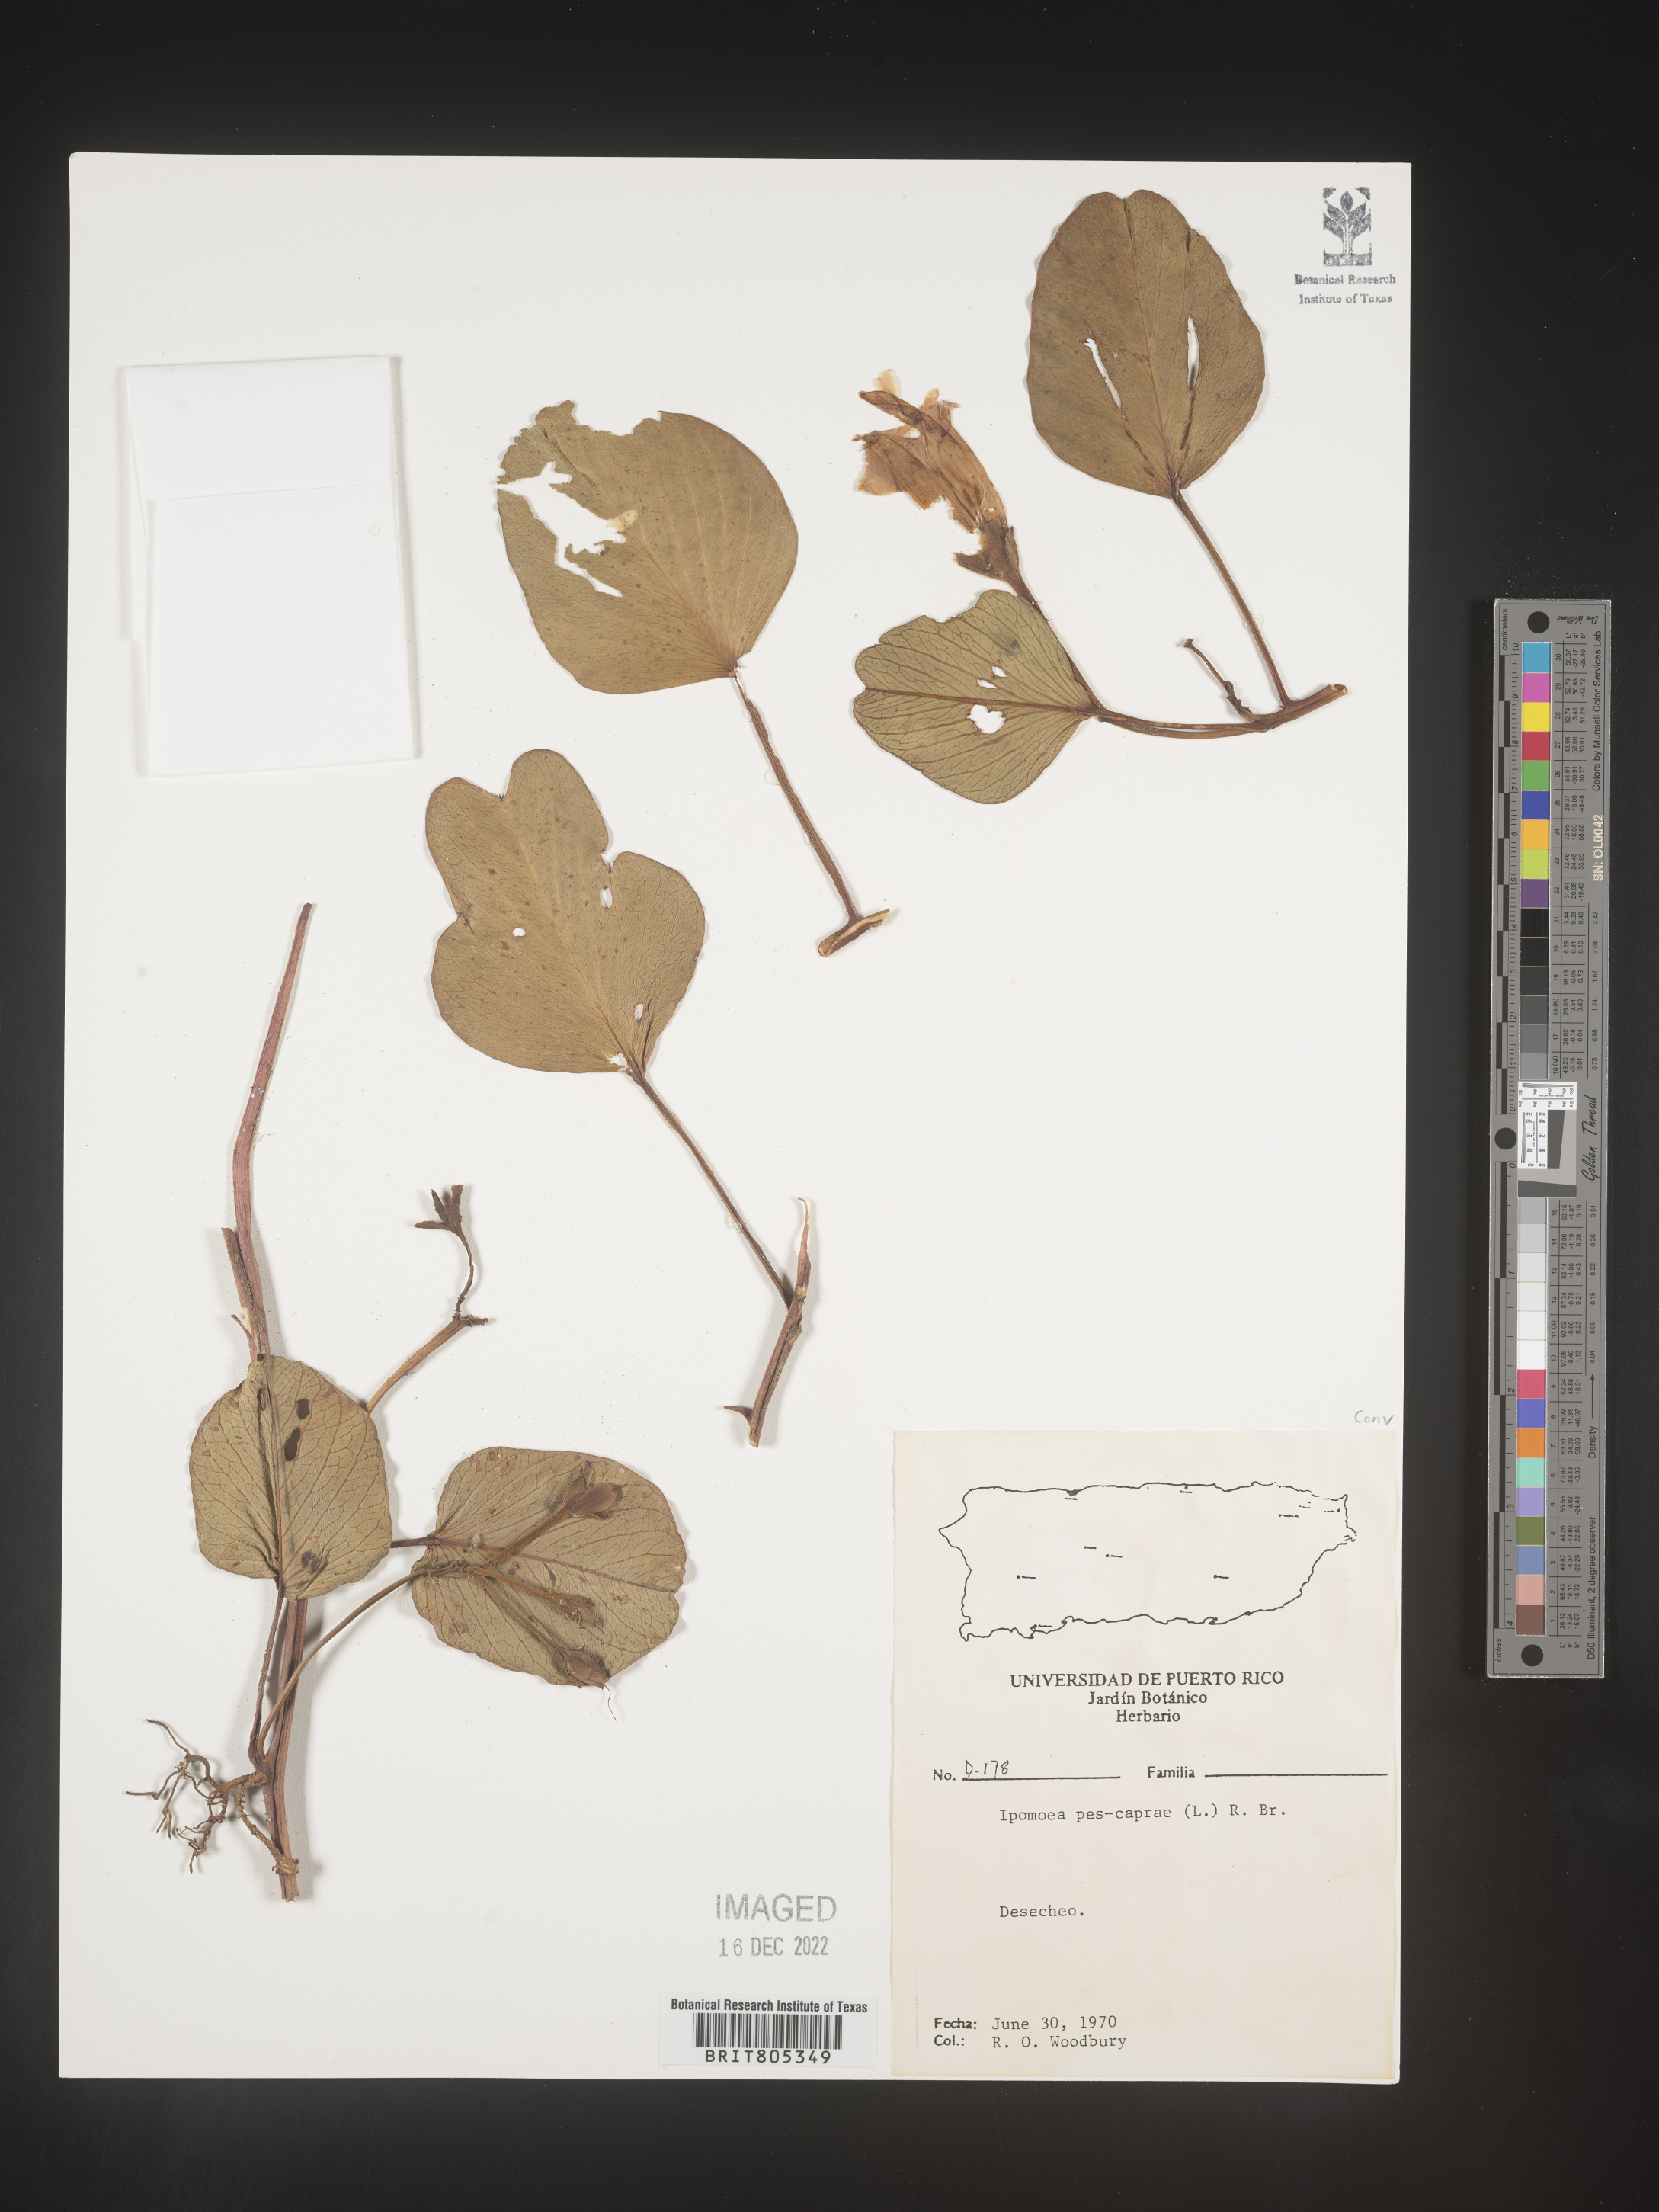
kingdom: Plantae
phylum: Tracheophyta
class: Magnoliopsida
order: Solanales
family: Convolvulaceae
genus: Ipomoea
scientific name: Ipomoea
